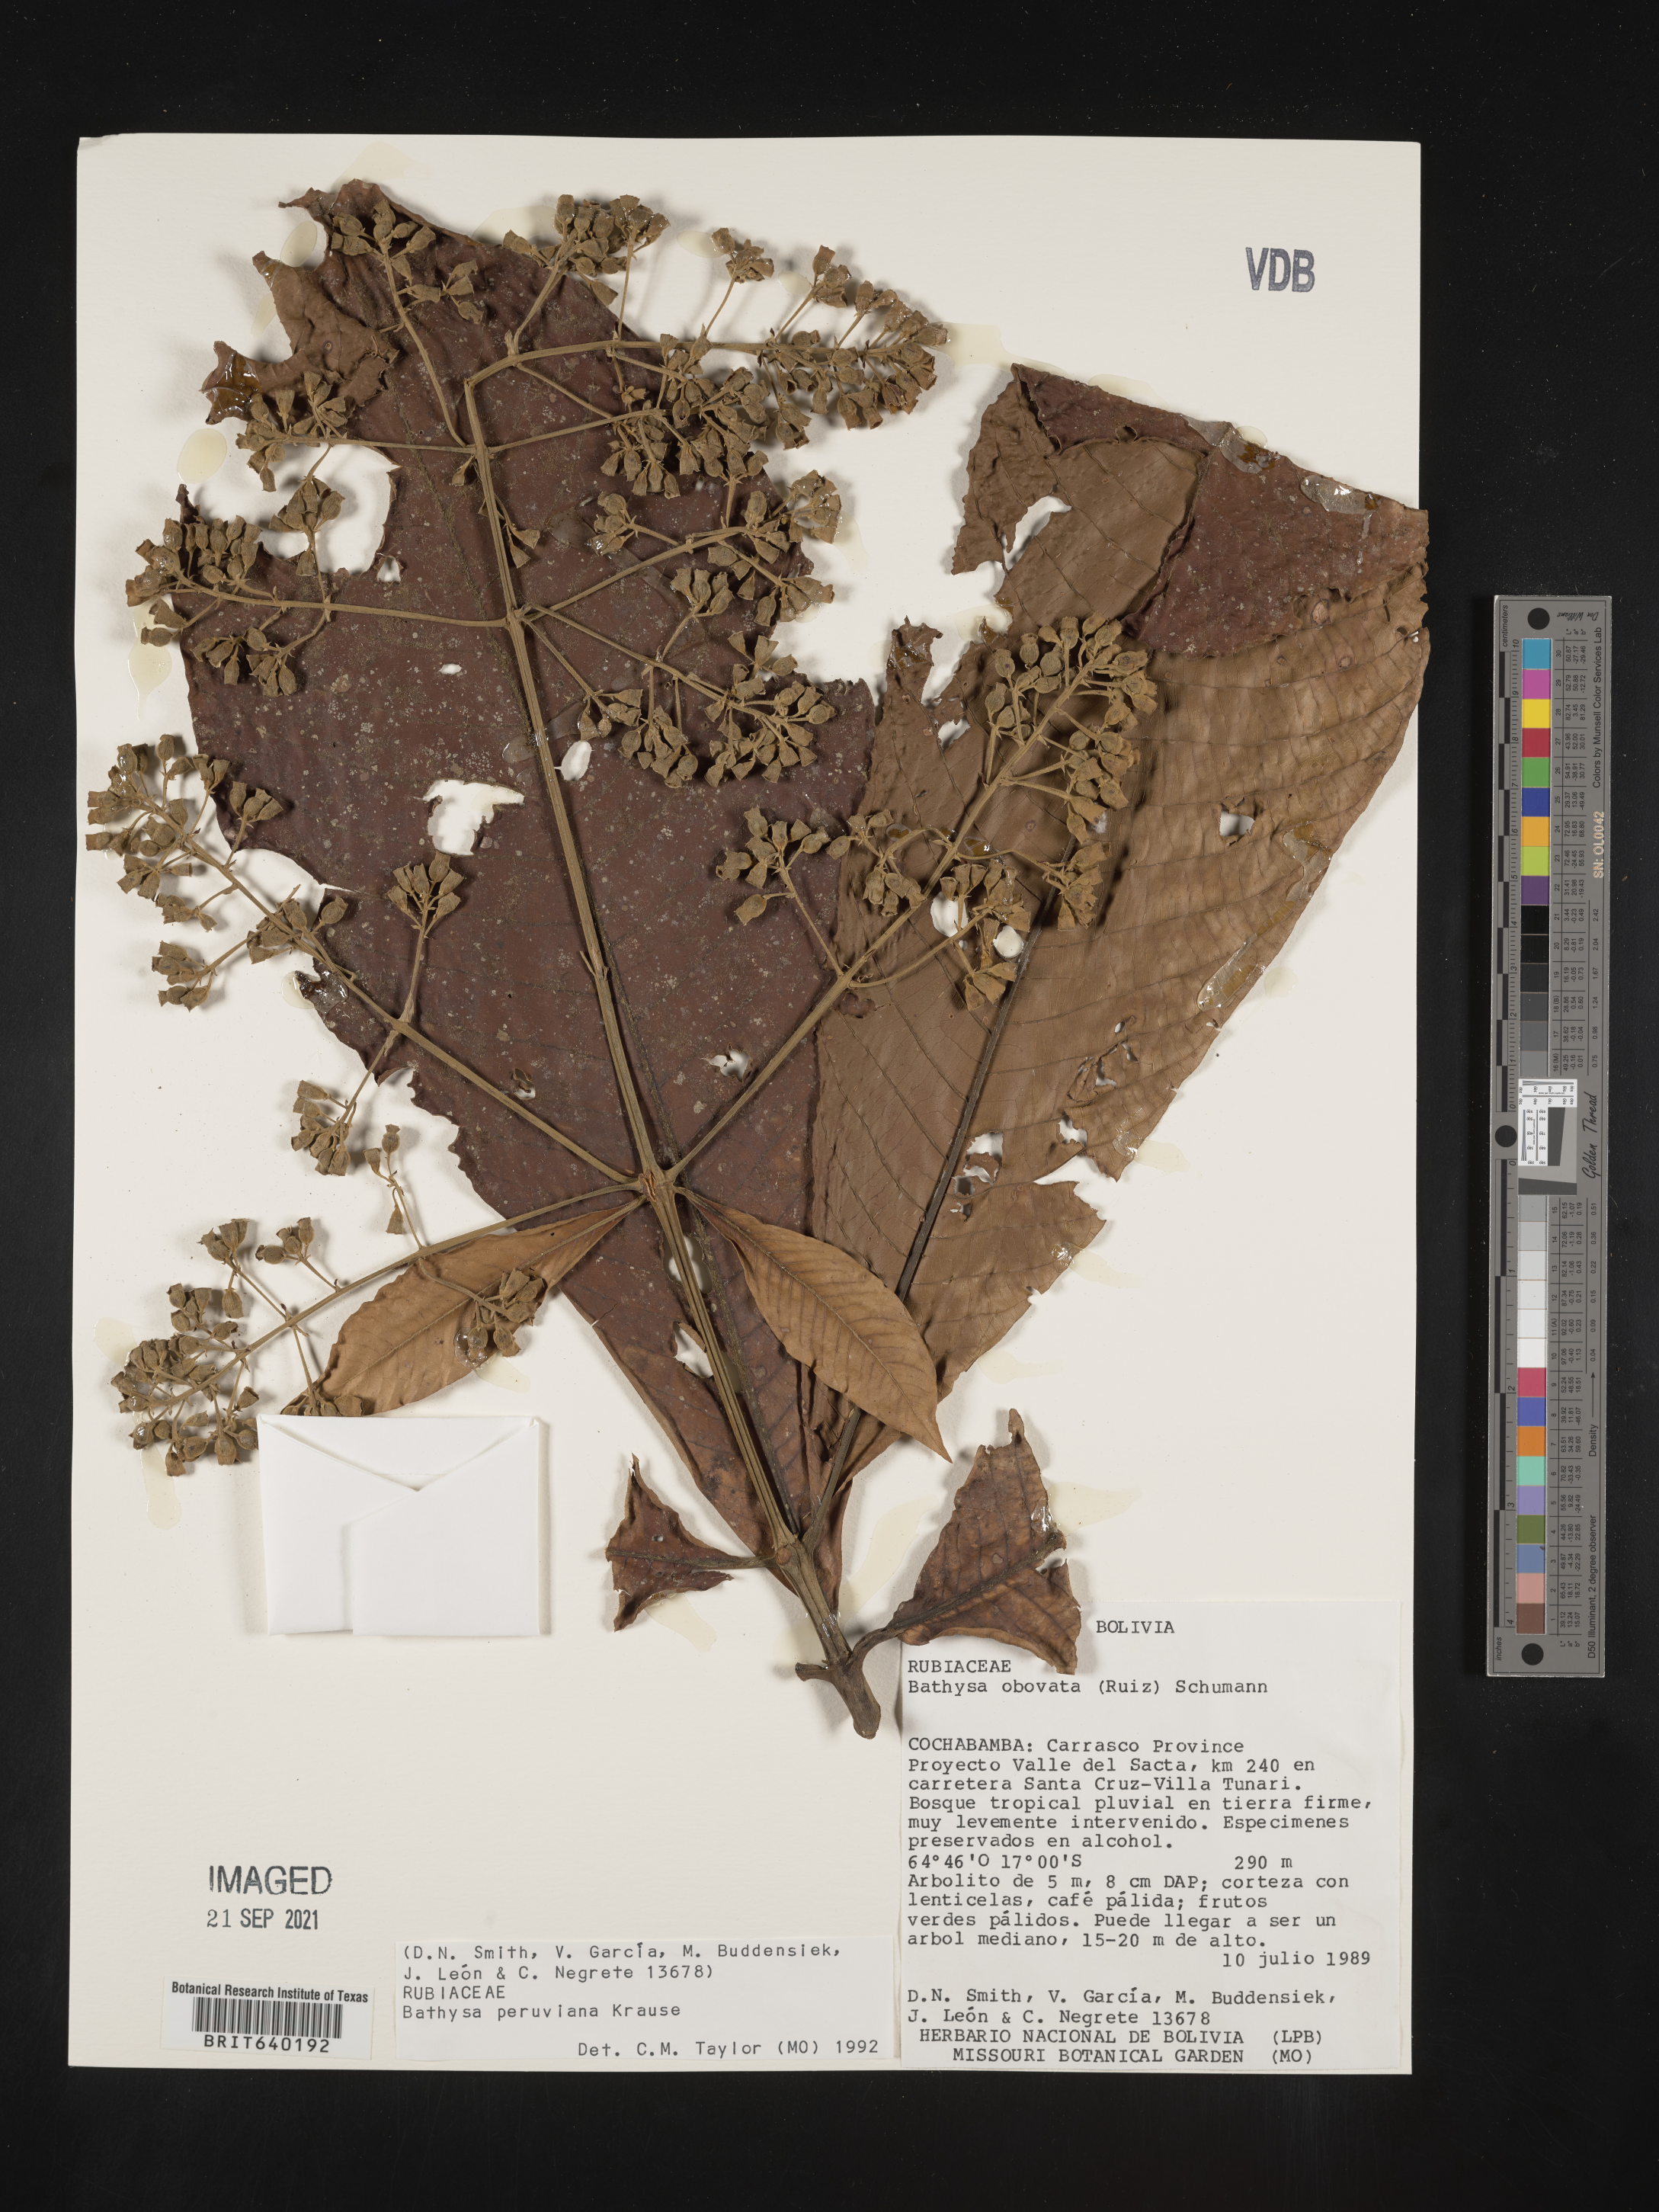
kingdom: Plantae
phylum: Tracheophyta
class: Magnoliopsida
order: Gentianales
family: Rubiaceae
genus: Bathysa
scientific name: Bathysa
